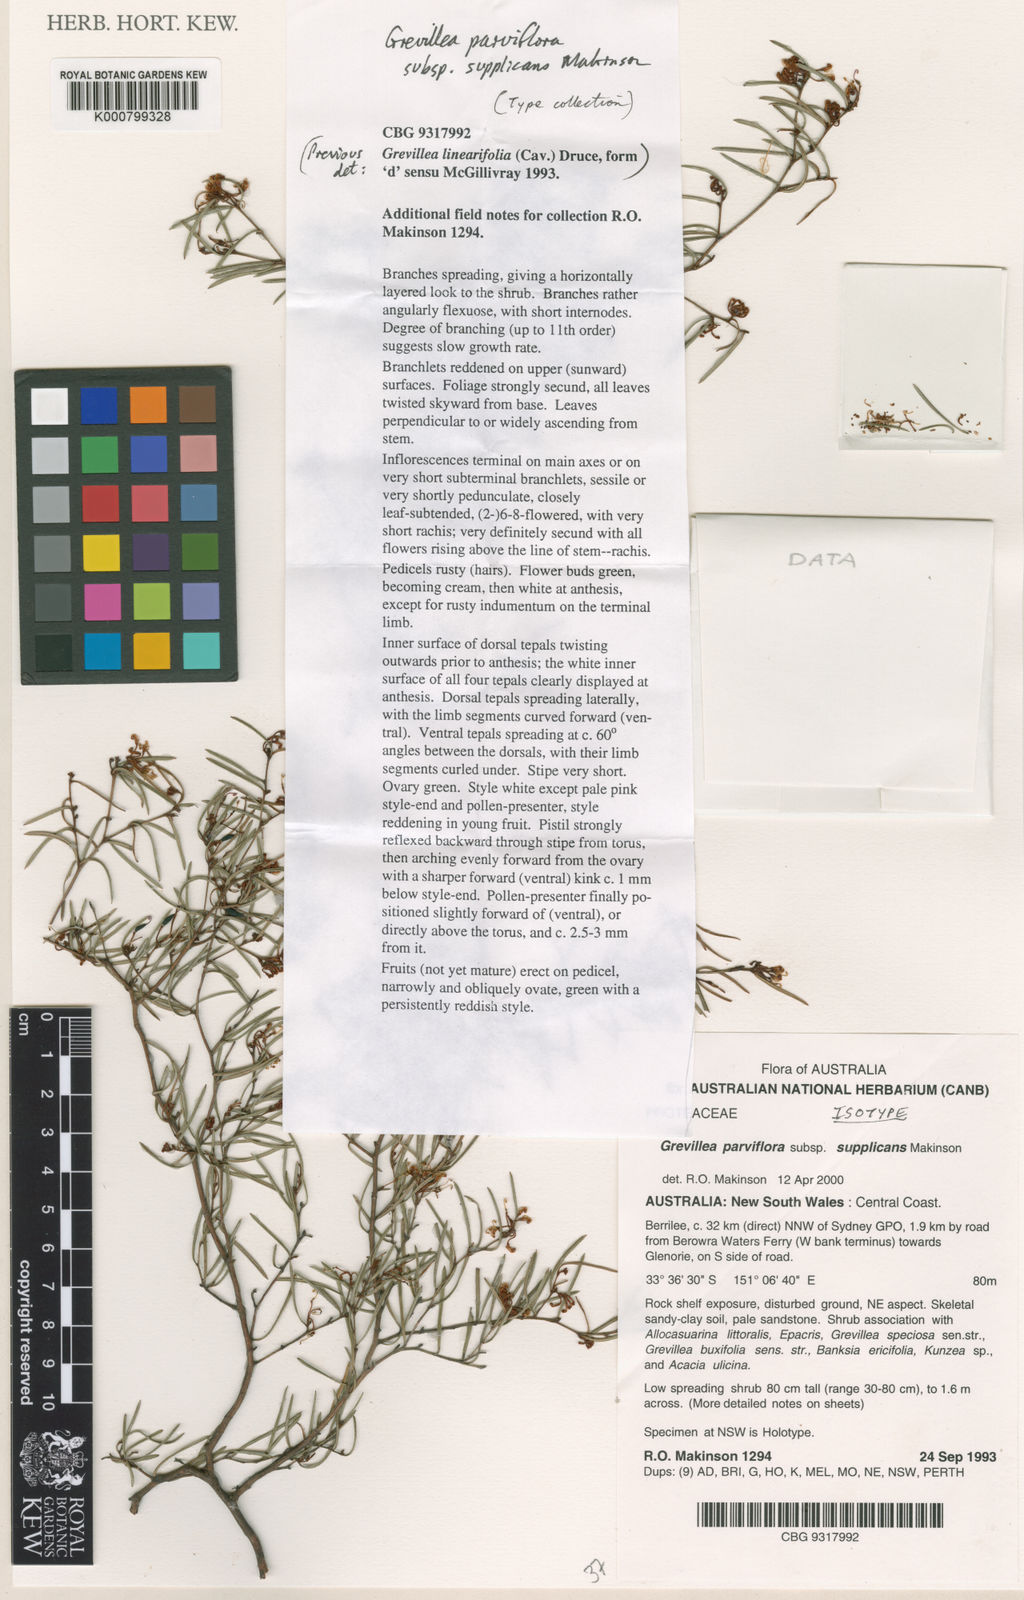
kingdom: Plantae
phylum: Tracheophyta
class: Magnoliopsida
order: Proteales
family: Proteaceae
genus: Grevillea
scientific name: Grevillea parviflora
